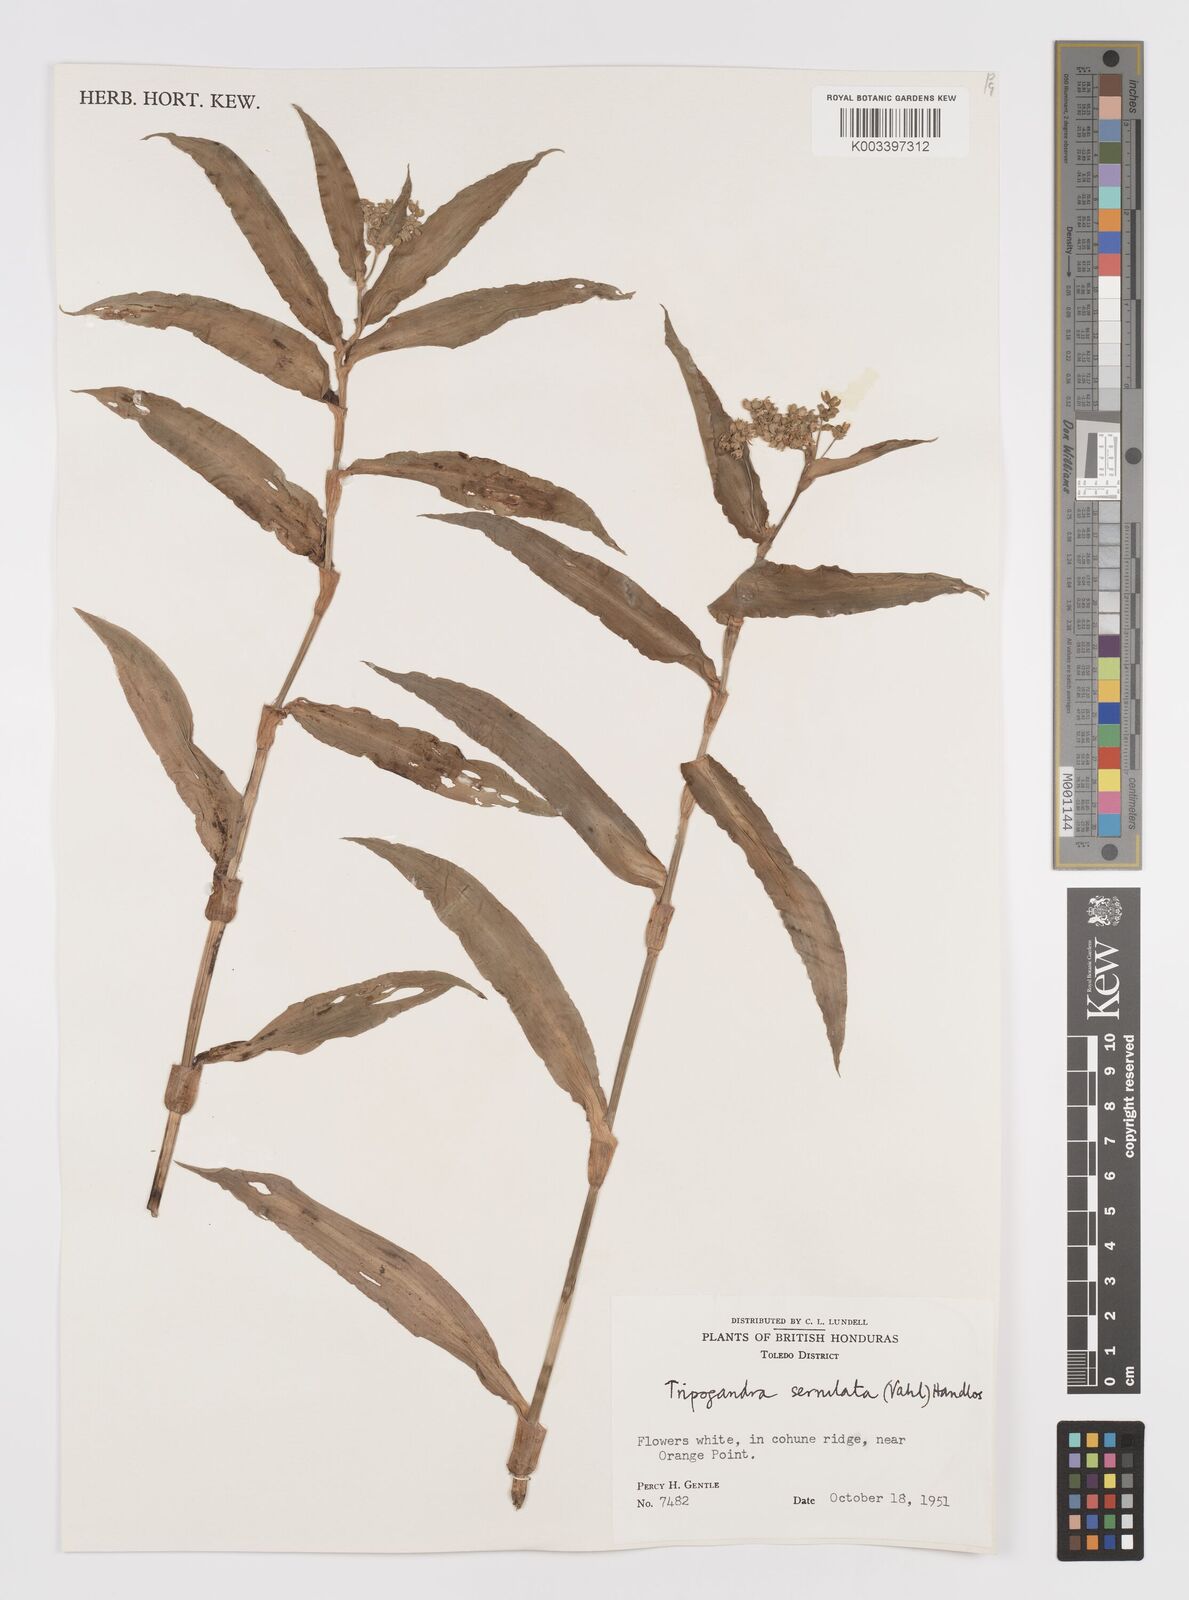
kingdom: Plantae
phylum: Tracheophyta
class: Liliopsida
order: Commelinales
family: Commelinaceae
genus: Callisia
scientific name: Callisia serrulata
